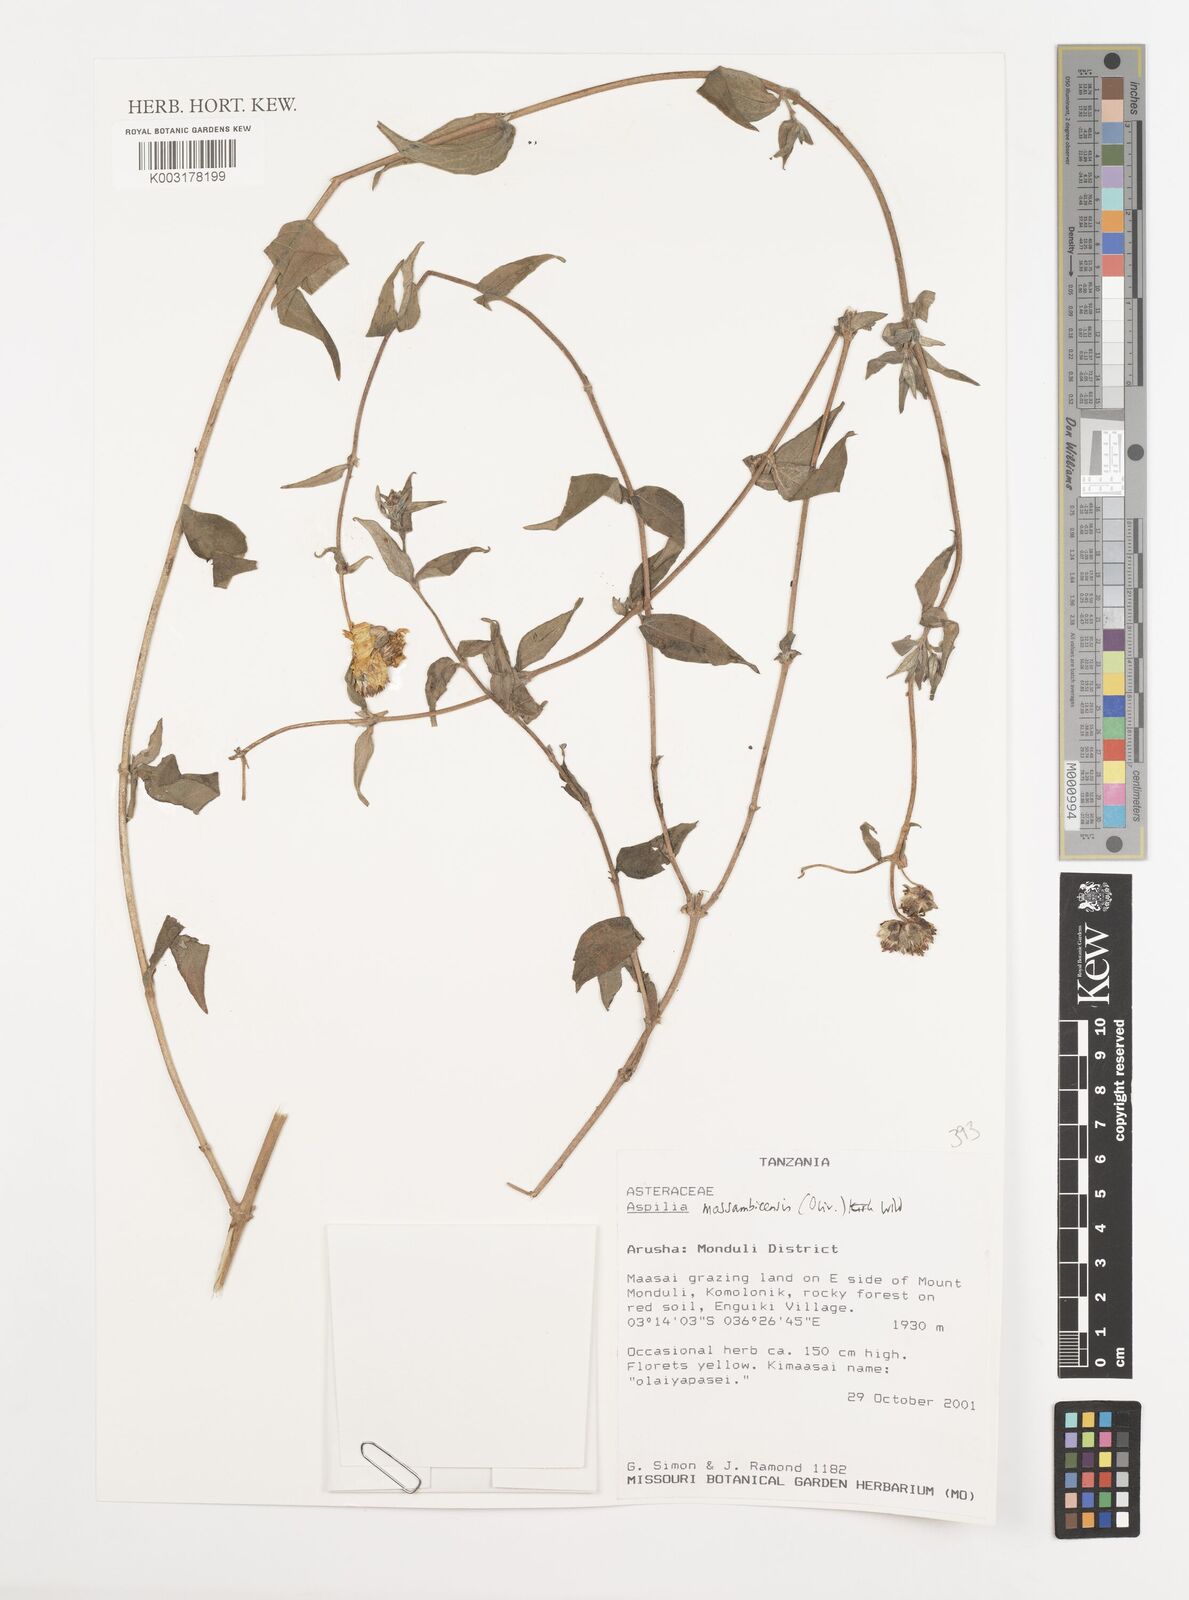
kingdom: Plantae
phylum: Tracheophyta
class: Magnoliopsida
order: Asterales
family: Asteraceae
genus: Aspilia
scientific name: Aspilia mossambicensis
